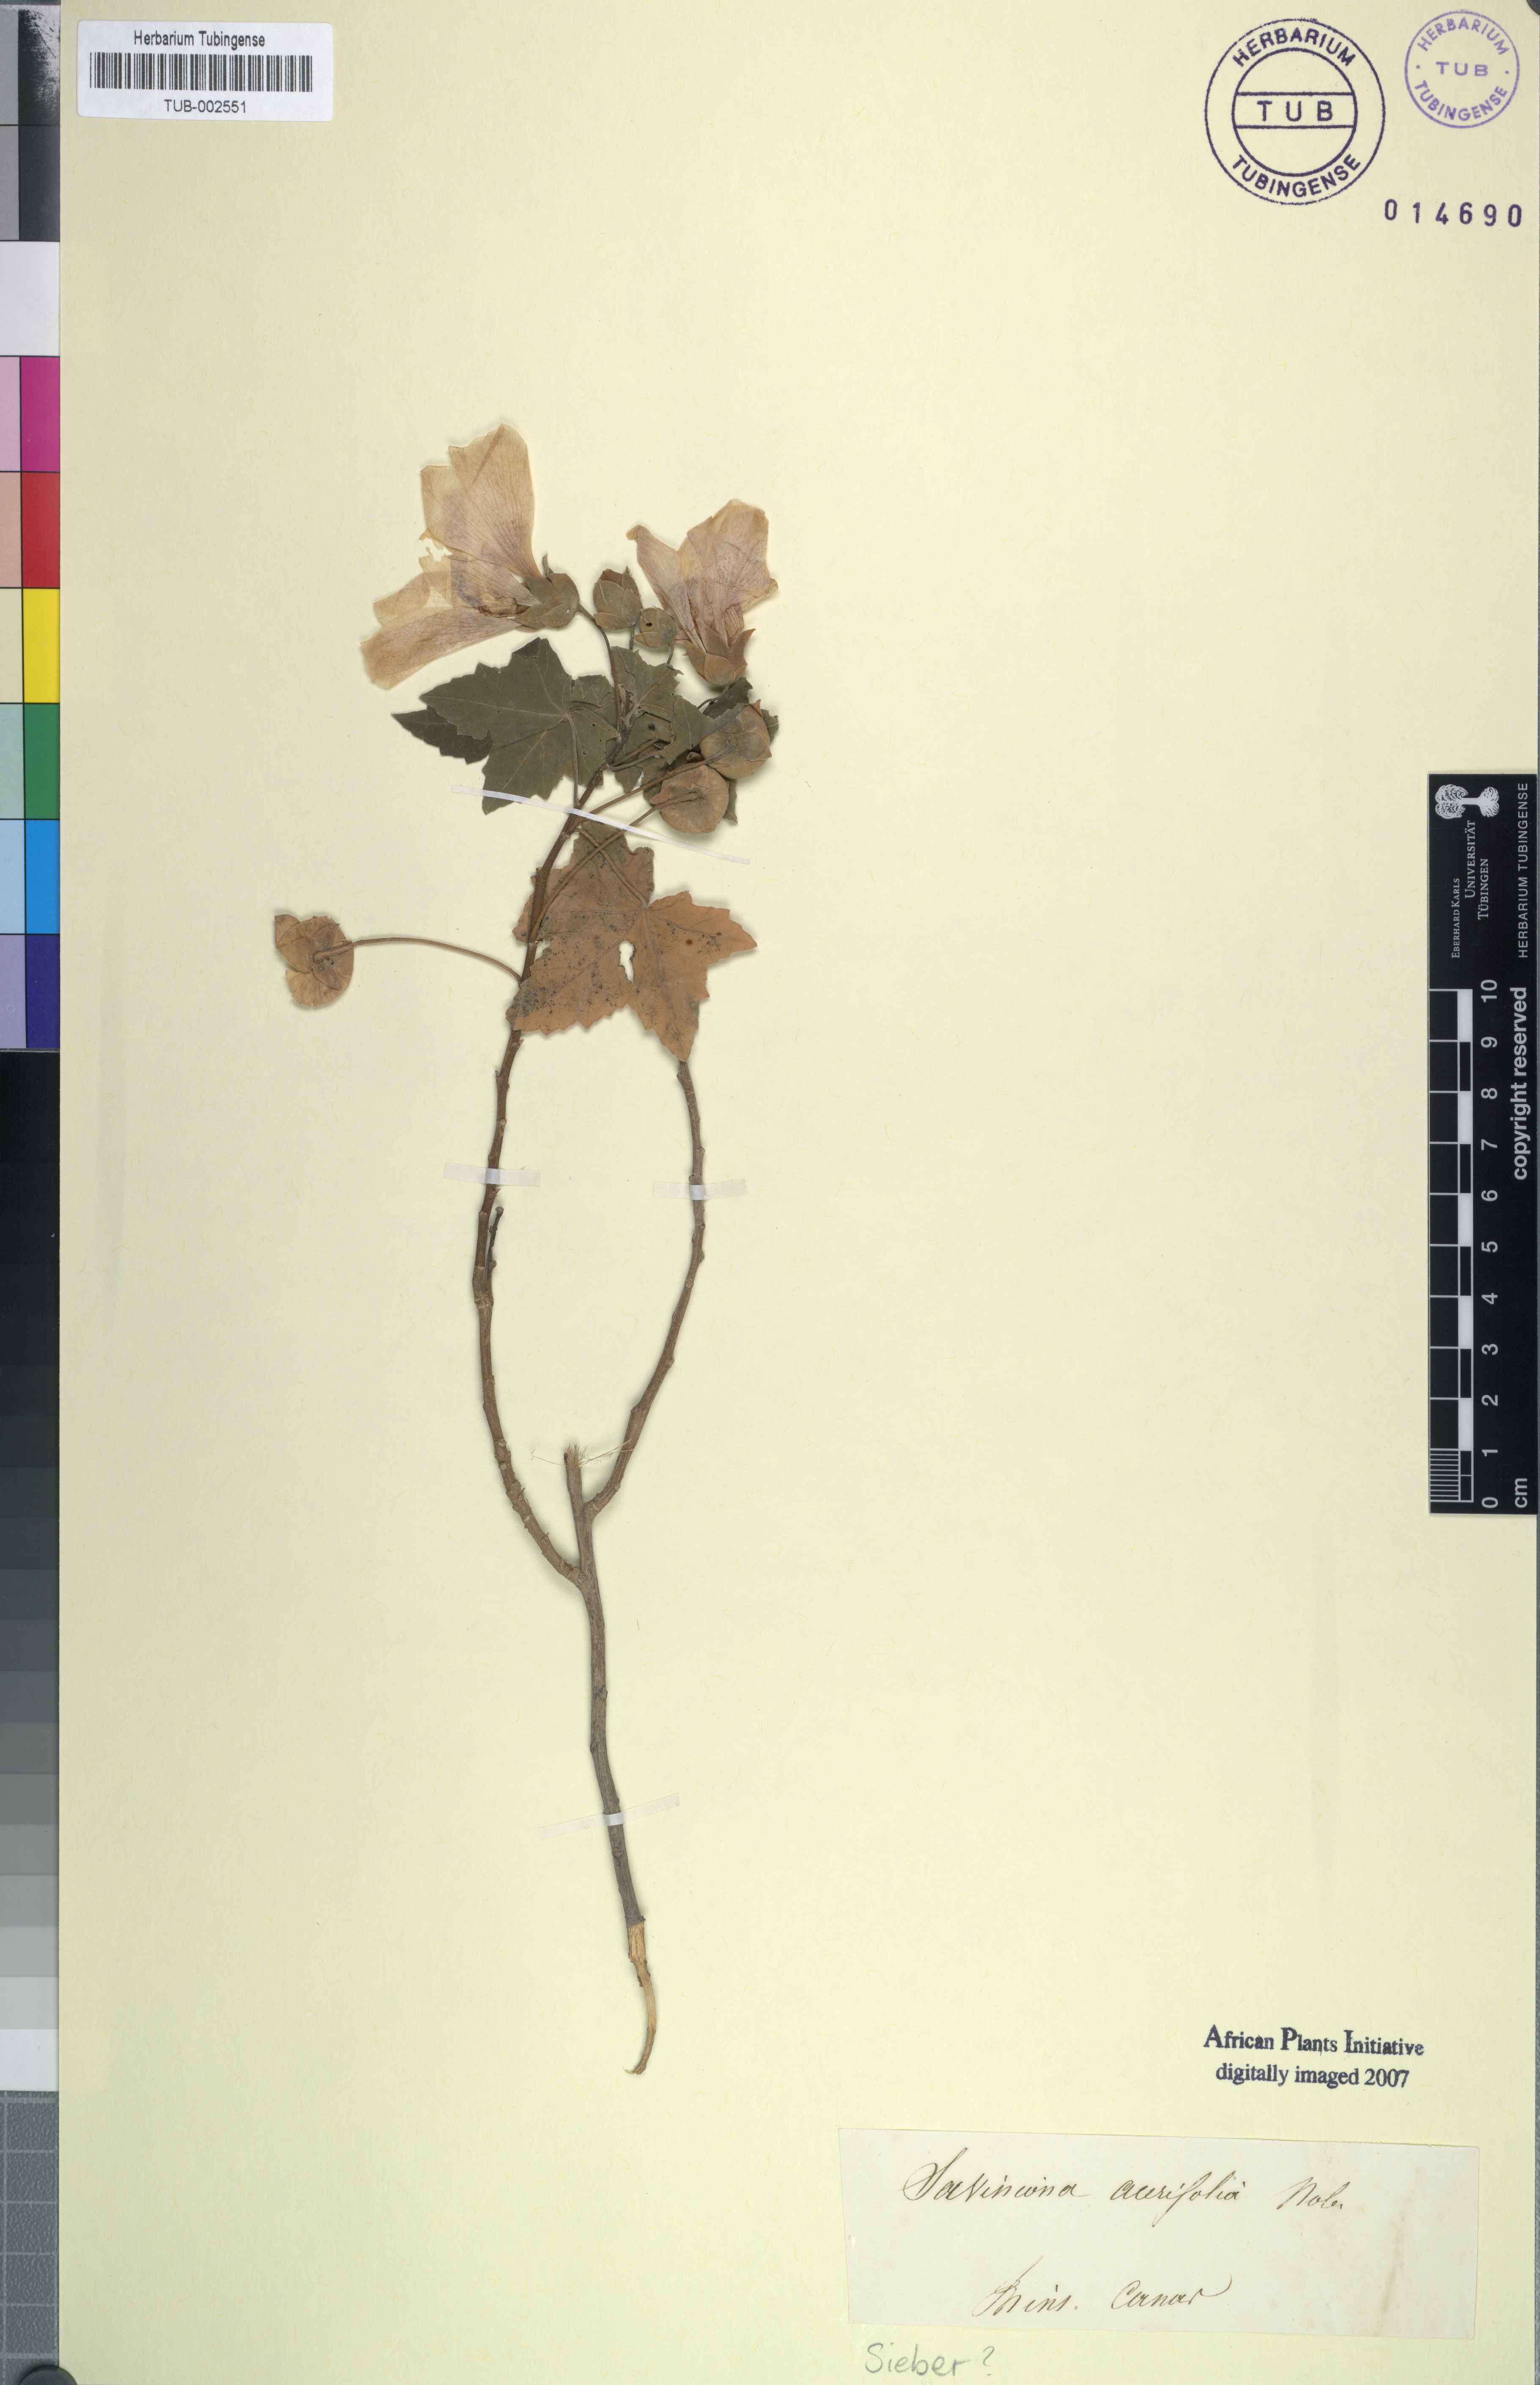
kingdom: Plantae
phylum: Tracheophyta
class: Magnoliopsida
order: Malvales
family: Malvaceae
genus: Malva
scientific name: Malva acerifolia
